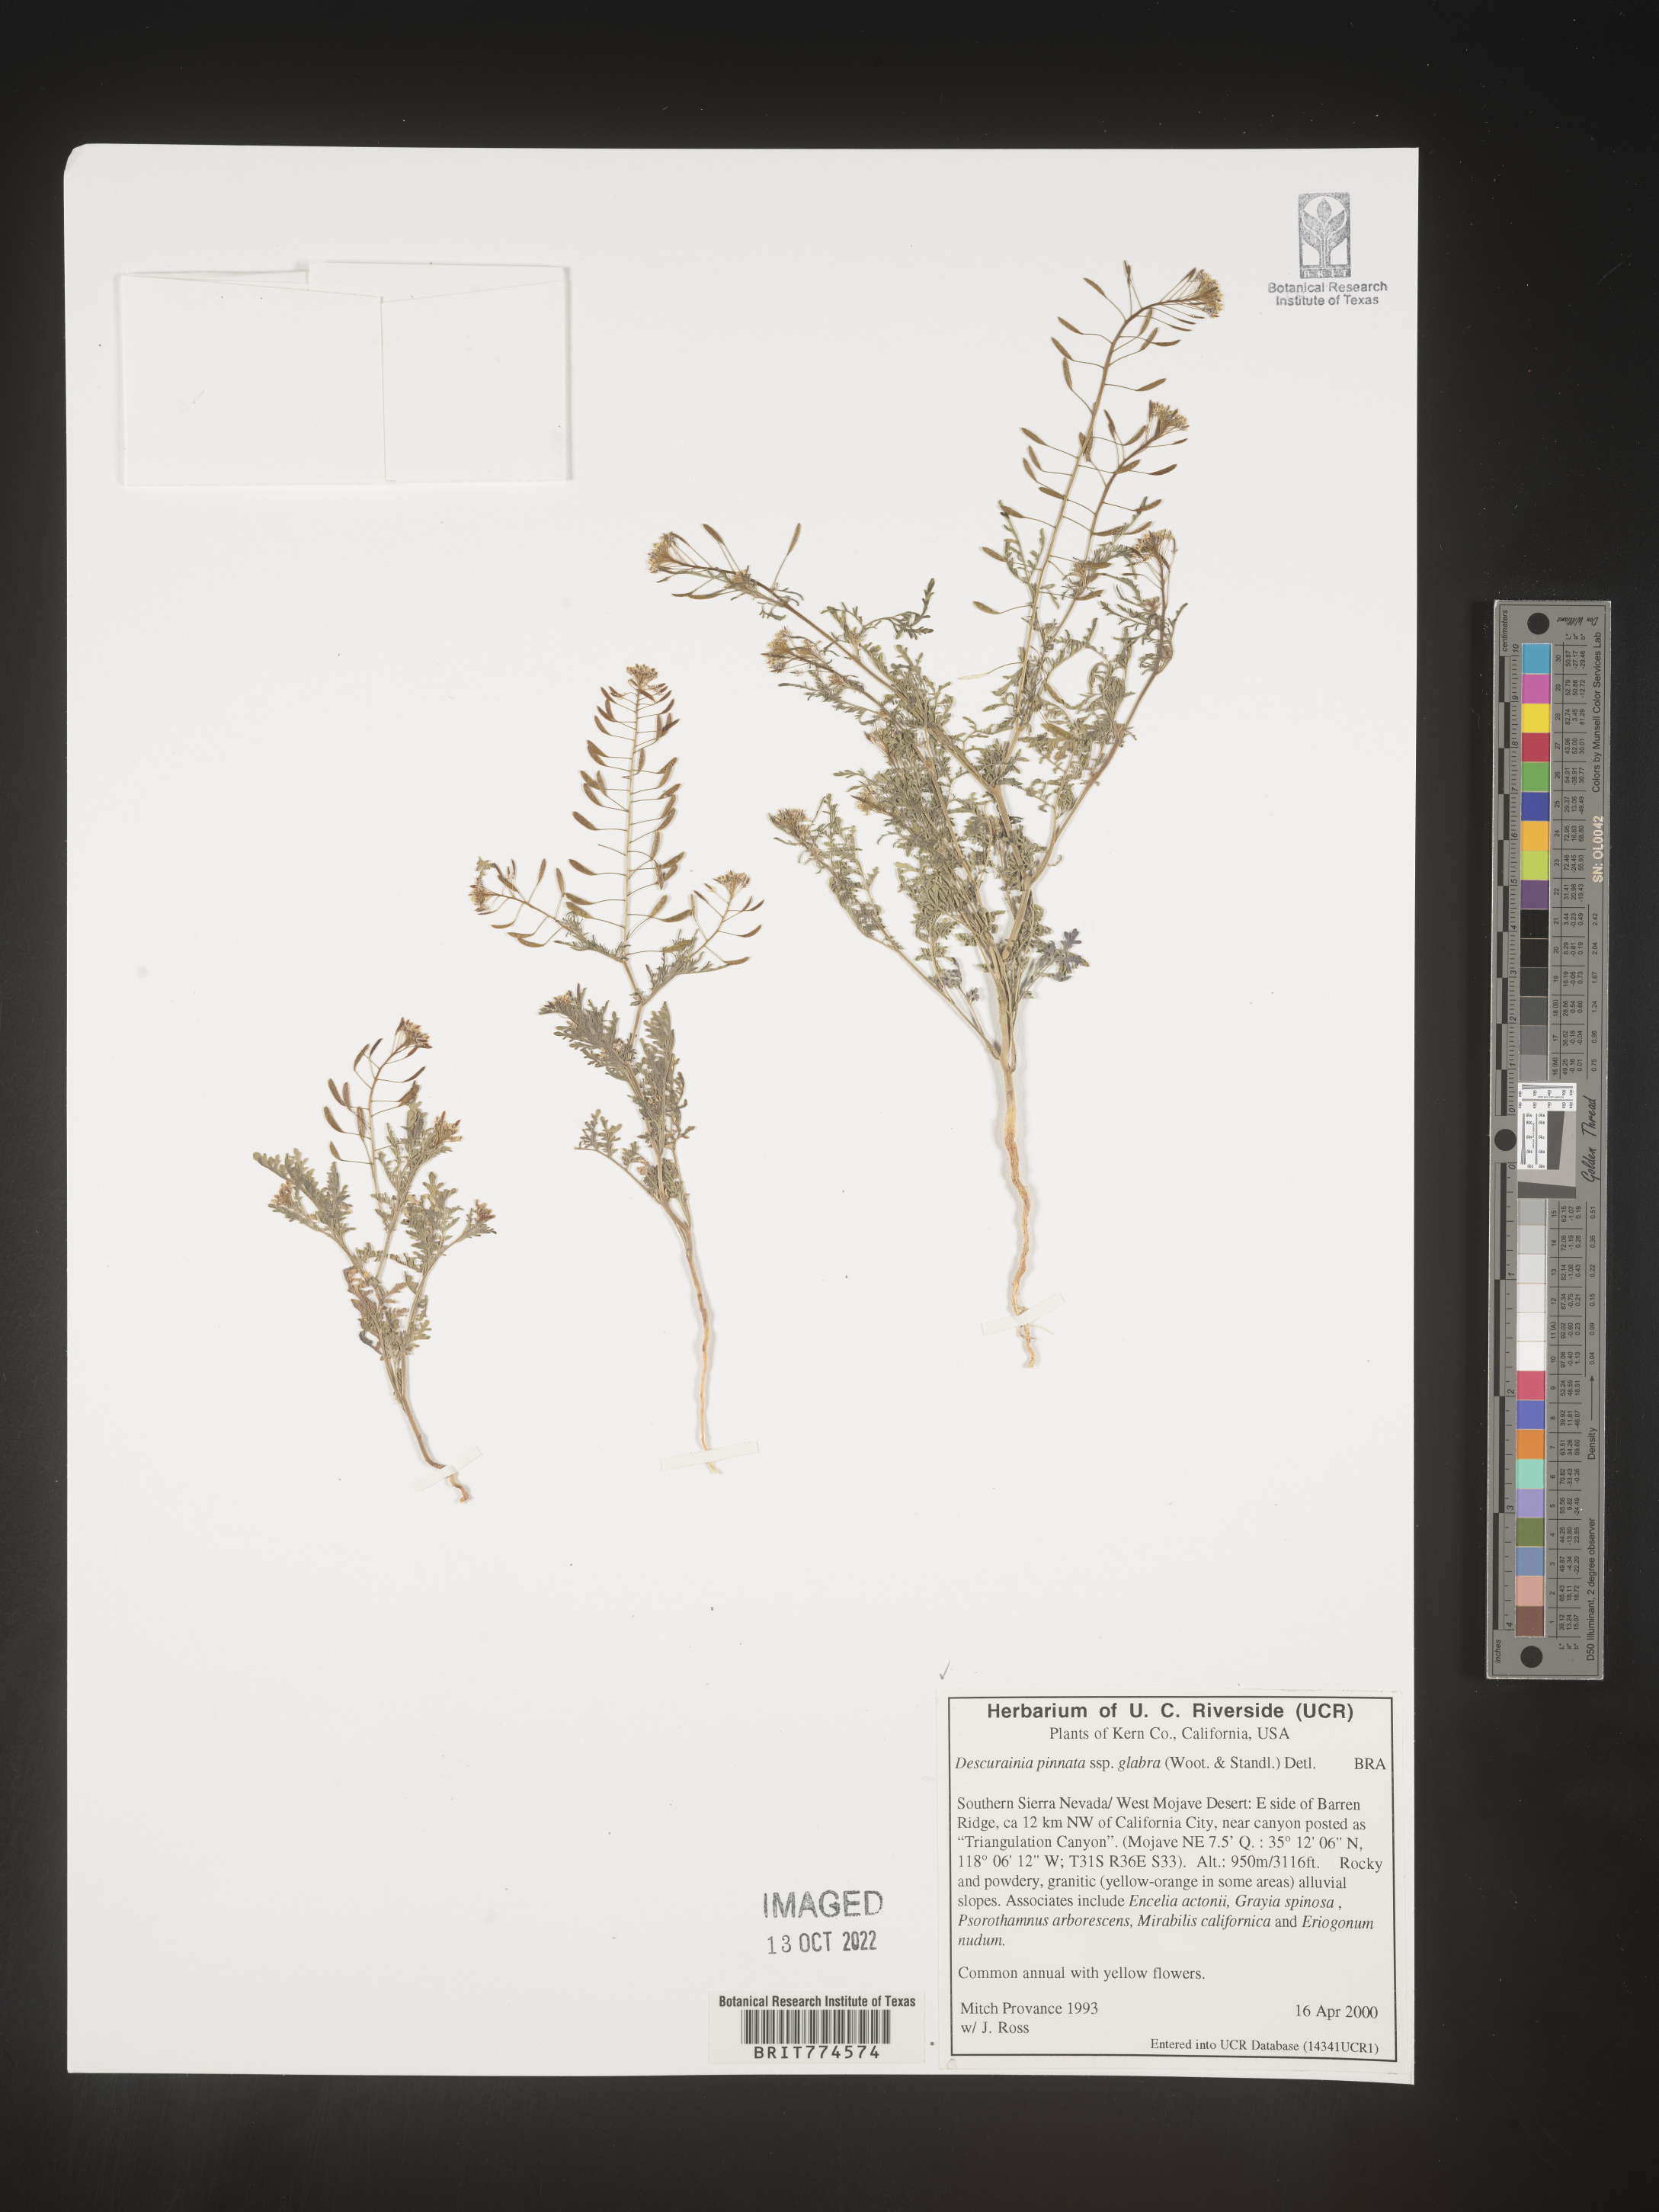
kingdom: Plantae
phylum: Tracheophyta
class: Magnoliopsida
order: Brassicales
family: Brassicaceae
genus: Descurainia
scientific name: Descurainia pinnata
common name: Western tansy mustard
